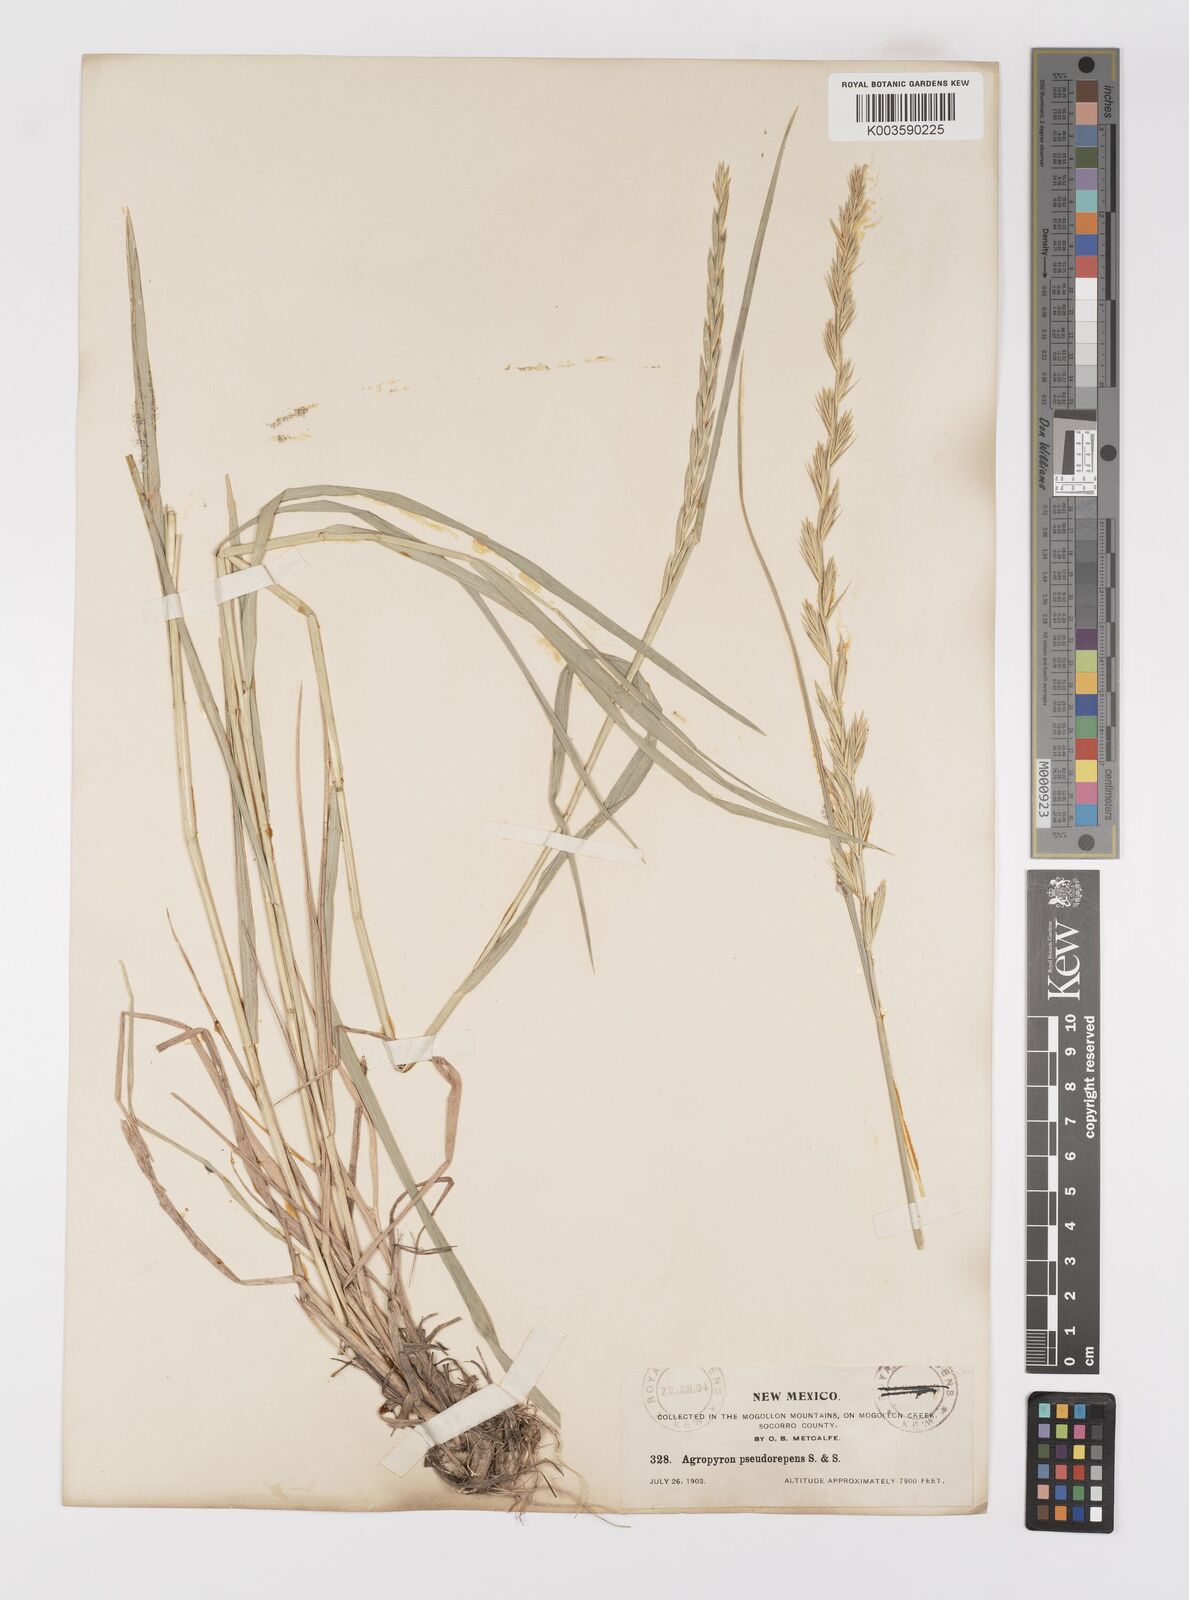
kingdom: Plantae
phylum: Tracheophyta
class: Liliopsida
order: Poales
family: Poaceae
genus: Elymus
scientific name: Elymus violaceus
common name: Arctic wheatgrass
